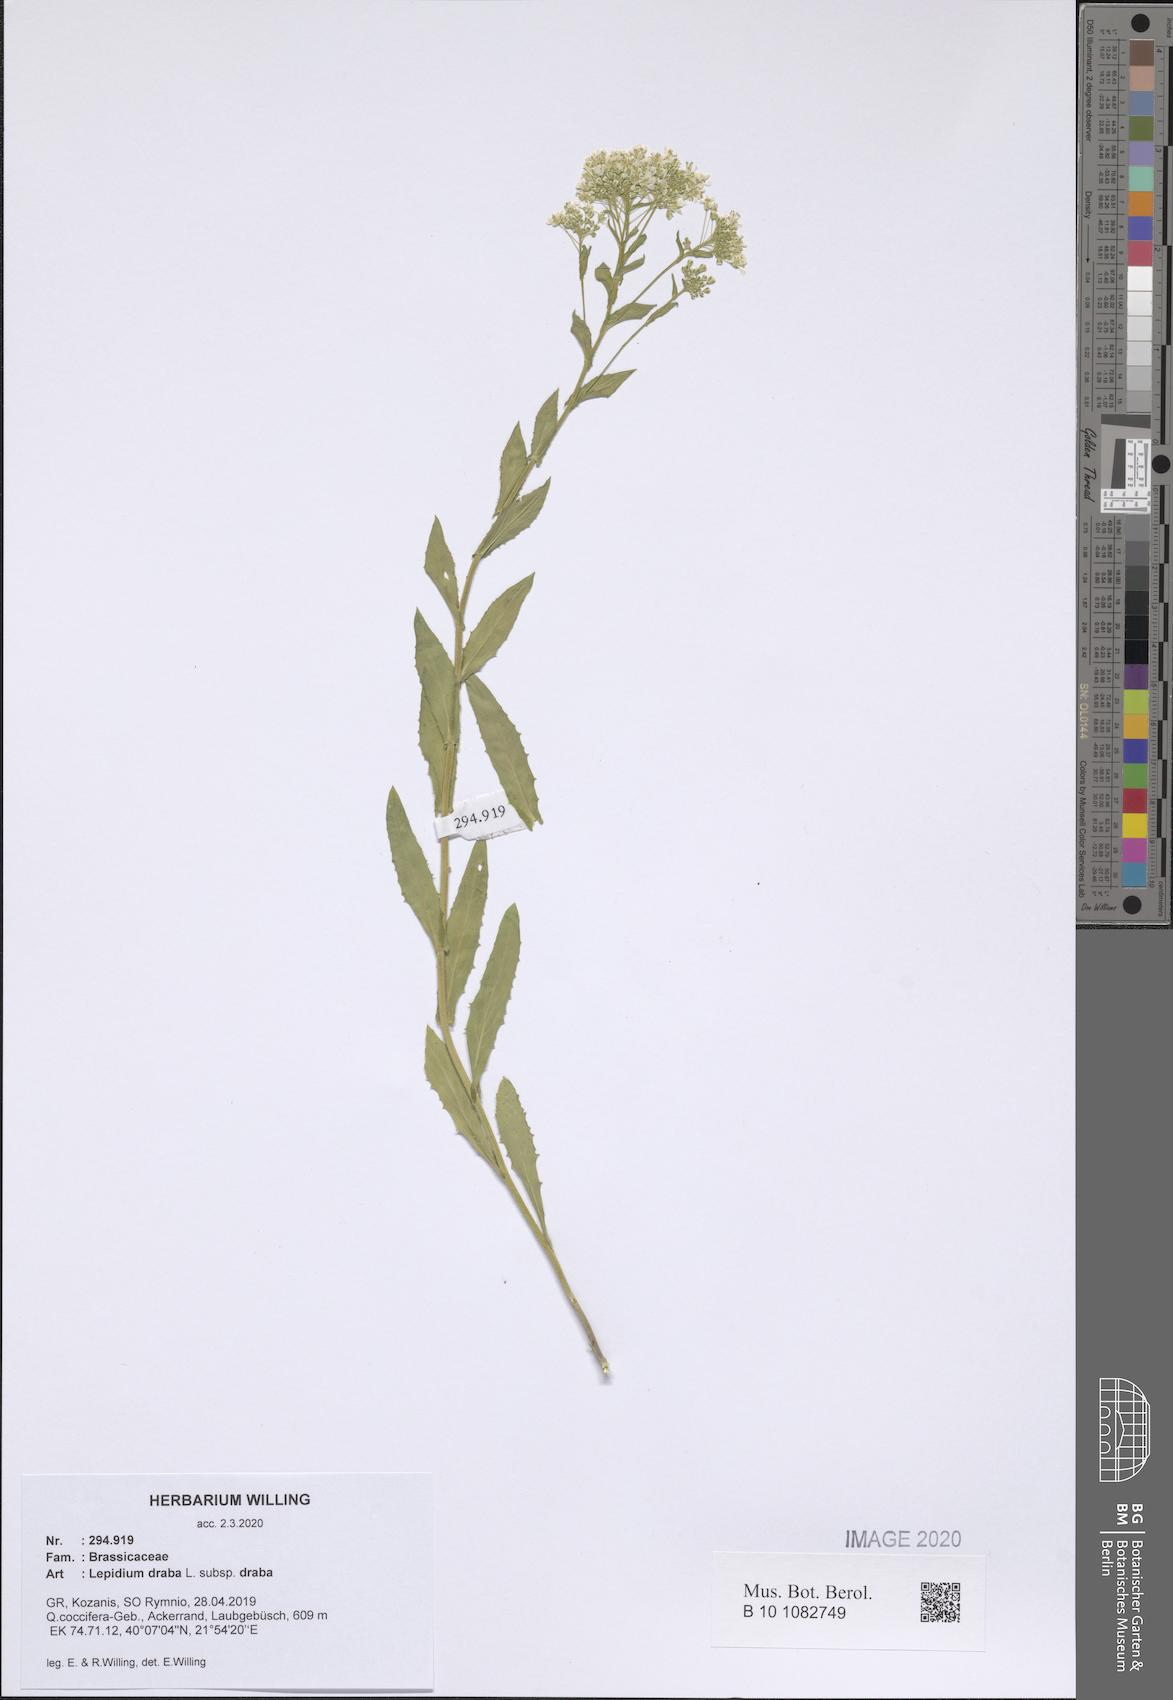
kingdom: Plantae
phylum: Tracheophyta
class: Magnoliopsida
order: Brassicales
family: Brassicaceae
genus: Lepidium
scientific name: Lepidium draba
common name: Hoary cress
